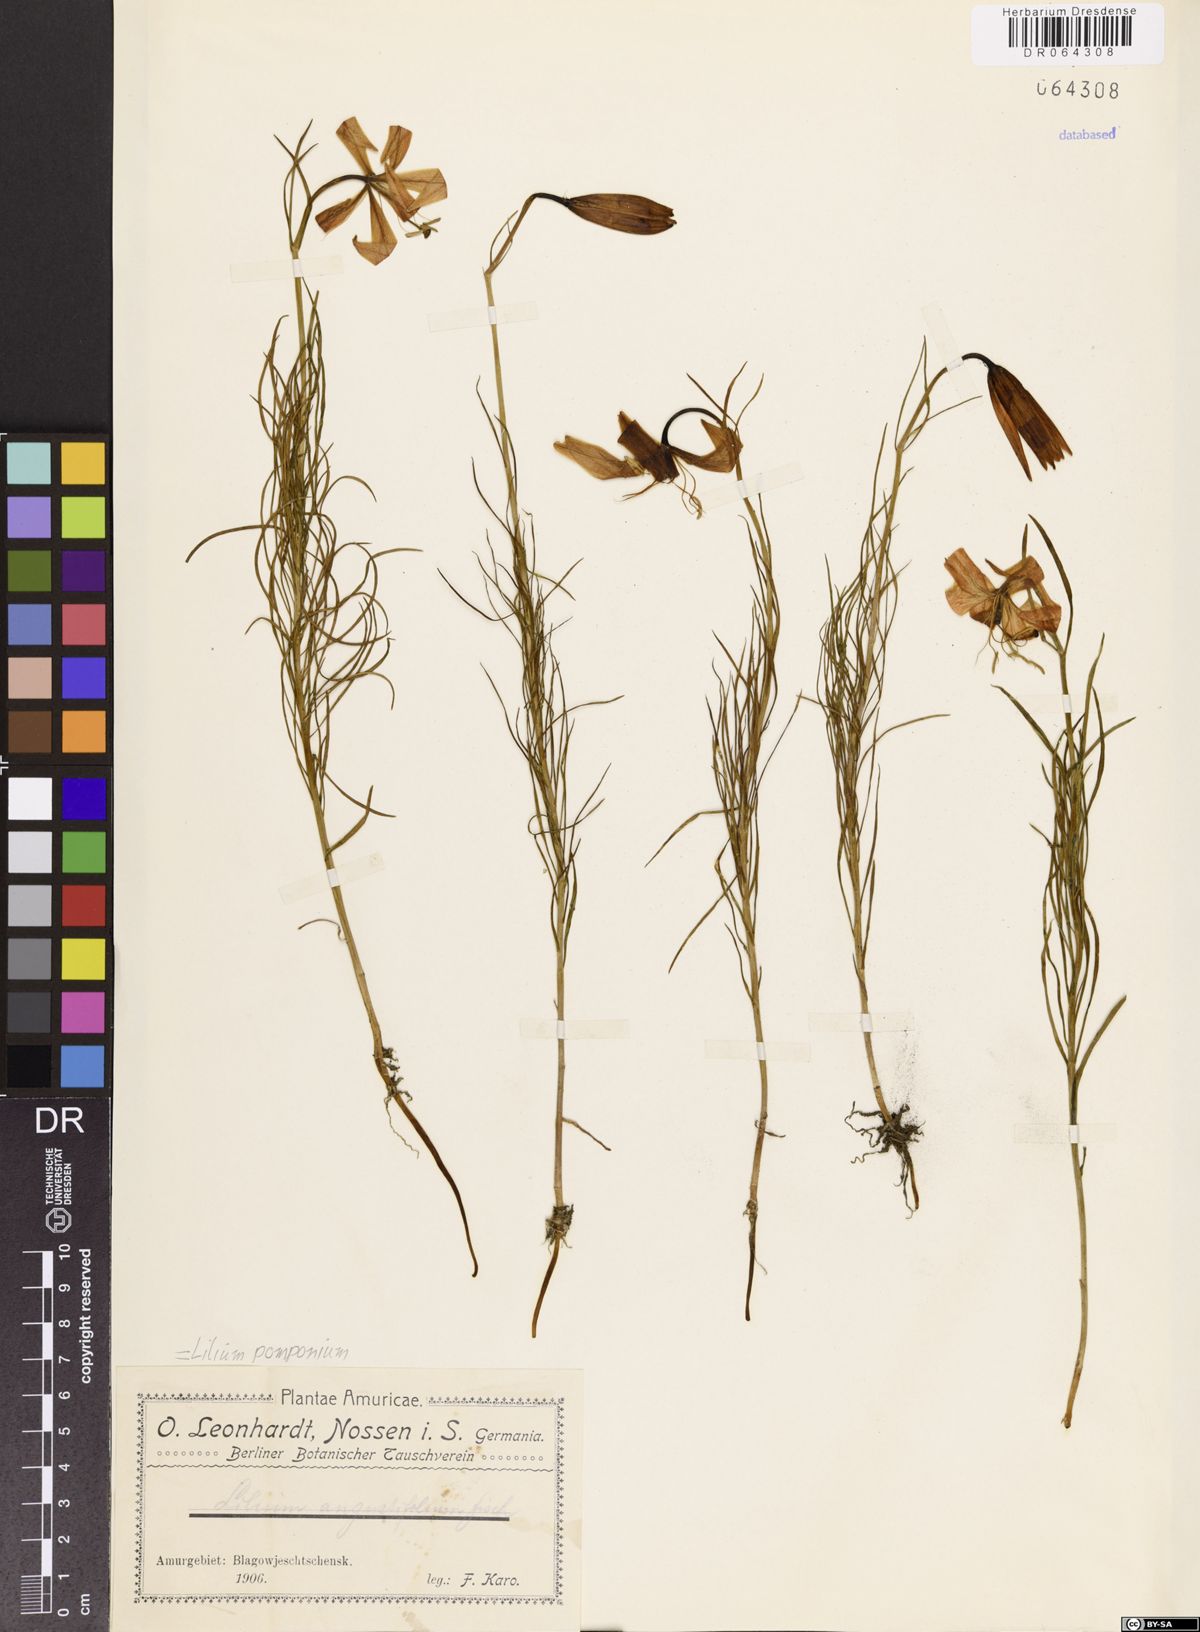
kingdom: Plantae
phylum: Tracheophyta
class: Liliopsida
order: Liliales
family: Liliaceae
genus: Lilium
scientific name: Lilium pomponium
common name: Minor turk's-cap lily
